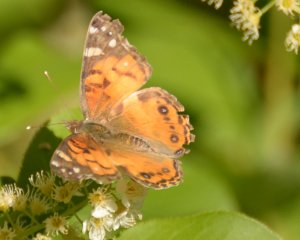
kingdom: Animalia
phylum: Arthropoda
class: Insecta
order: Lepidoptera
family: Nymphalidae
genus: Vanessa
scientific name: Vanessa virginiensis
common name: American Lady
